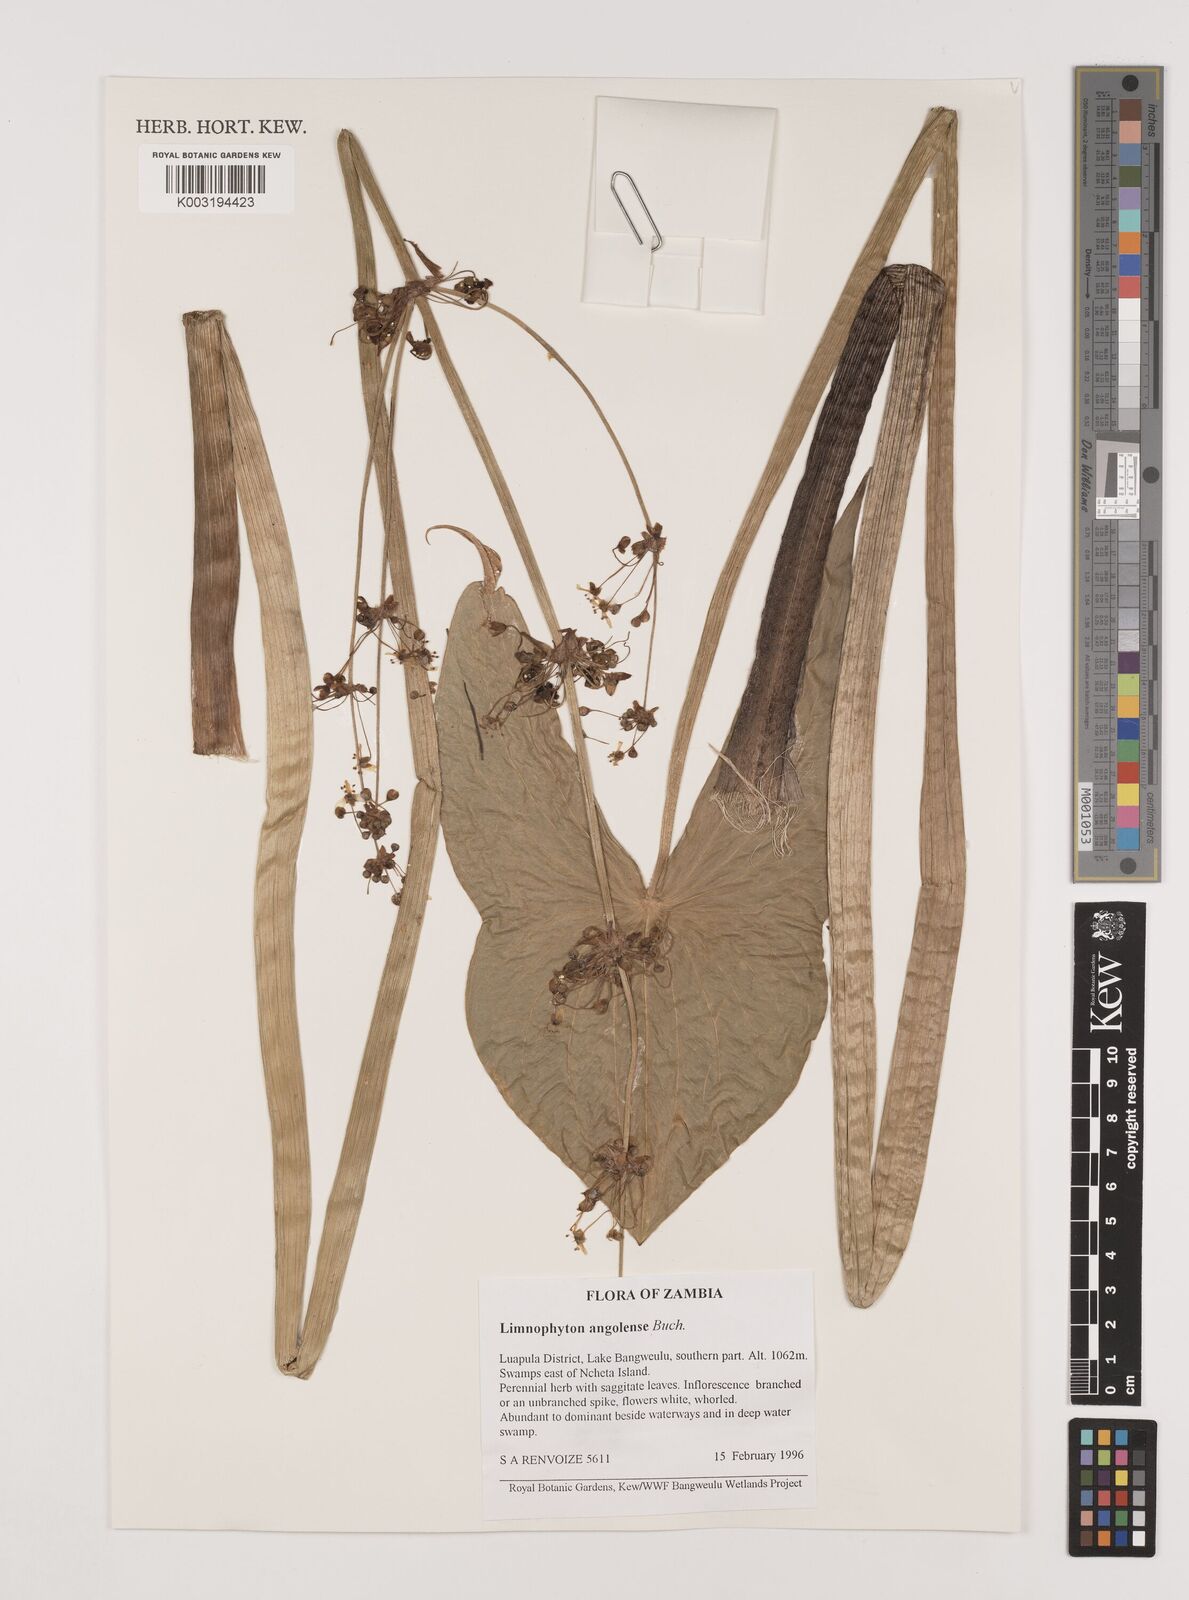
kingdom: Plantae
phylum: Tracheophyta
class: Liliopsida
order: Alismatales
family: Alismataceae
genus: Limnophyton
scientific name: Limnophyton
